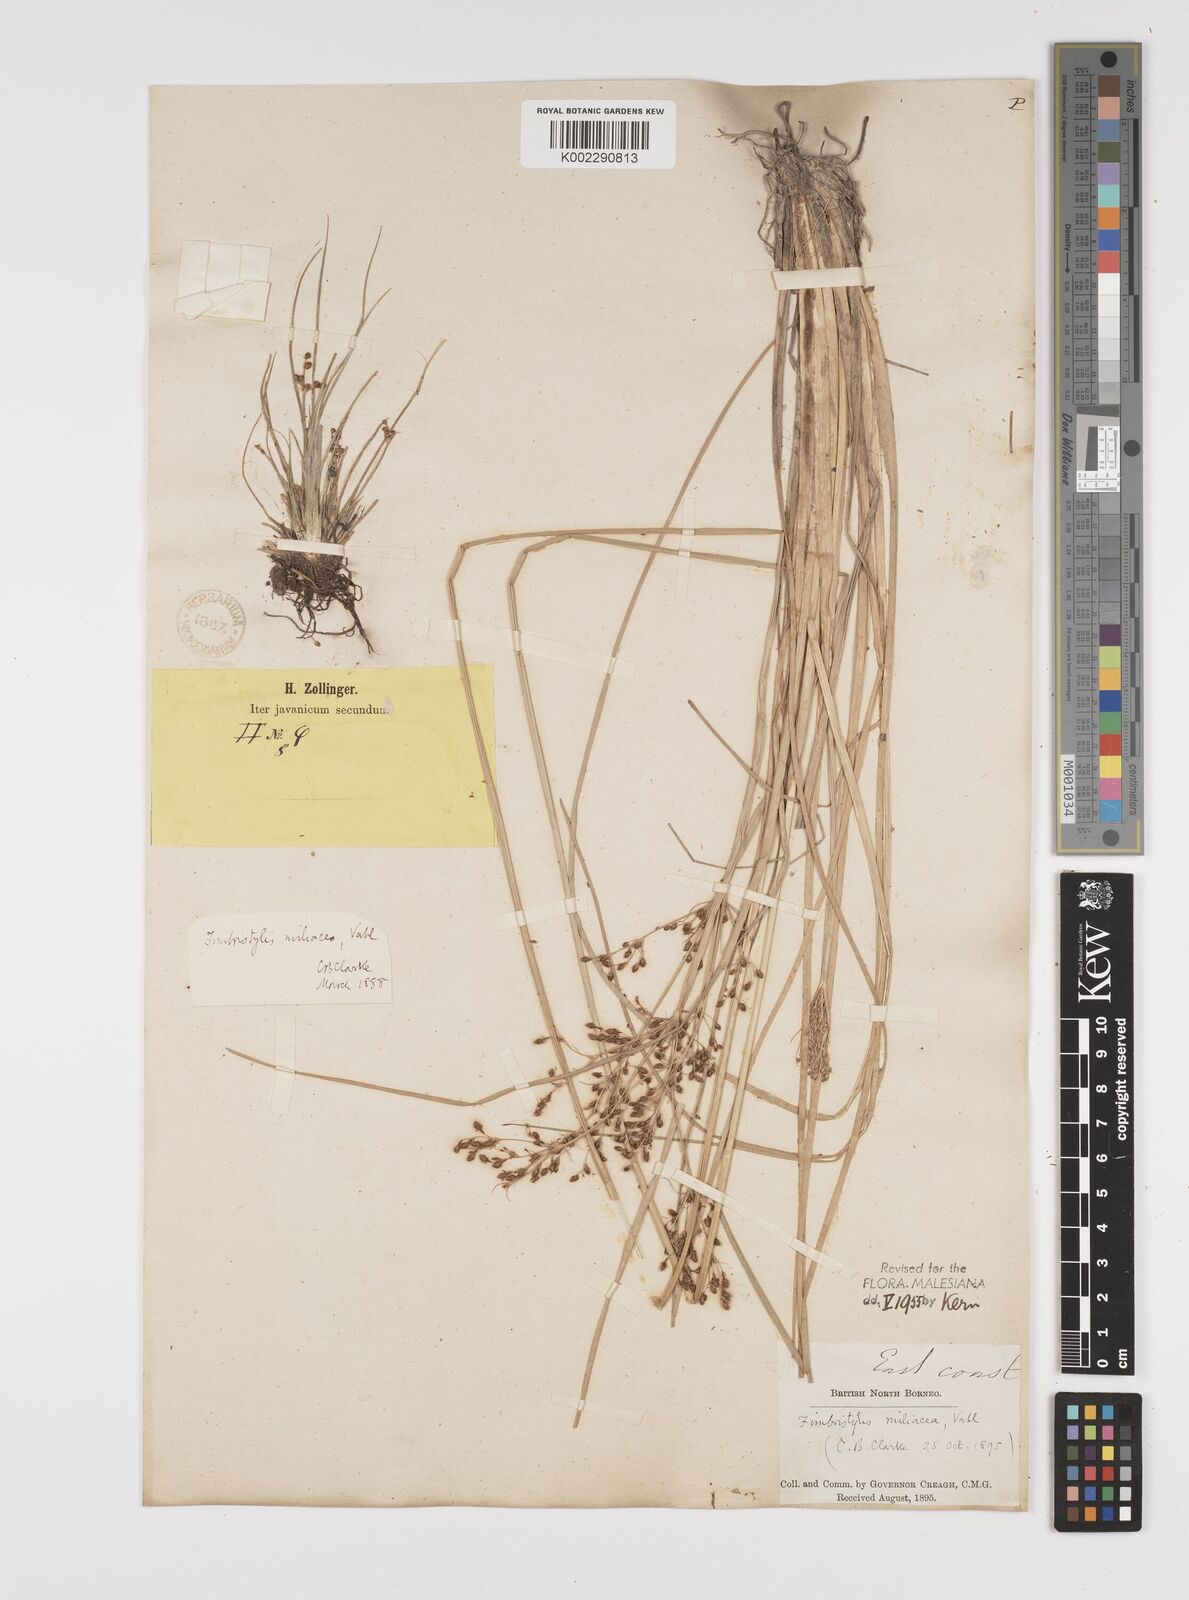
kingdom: Plantae
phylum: Tracheophyta
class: Liliopsida
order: Poales
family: Cyperaceae
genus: Fimbristylis
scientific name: Fimbristylis littoralis
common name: Fimbry
